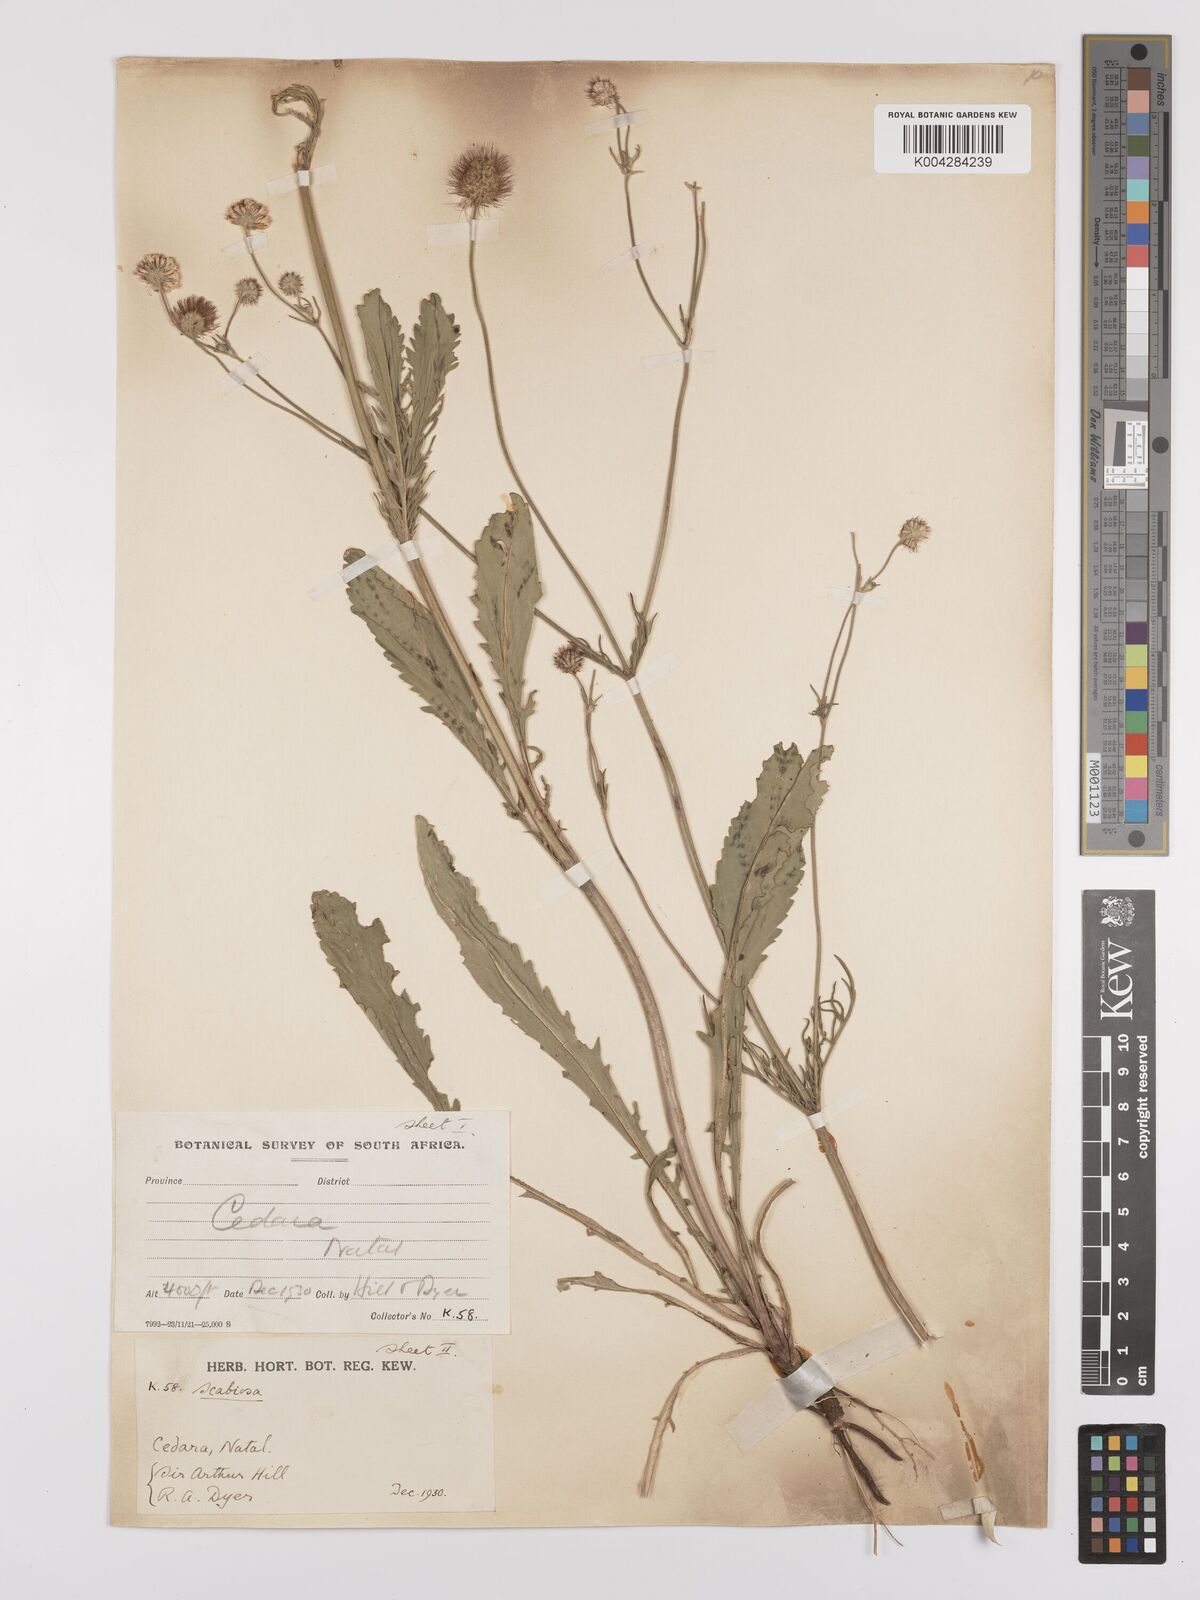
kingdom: Plantae
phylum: Tracheophyta
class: Magnoliopsida
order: Dipsacales
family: Caprifoliaceae
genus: Scabiosa
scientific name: Scabiosa columbaria
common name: Small scabious
